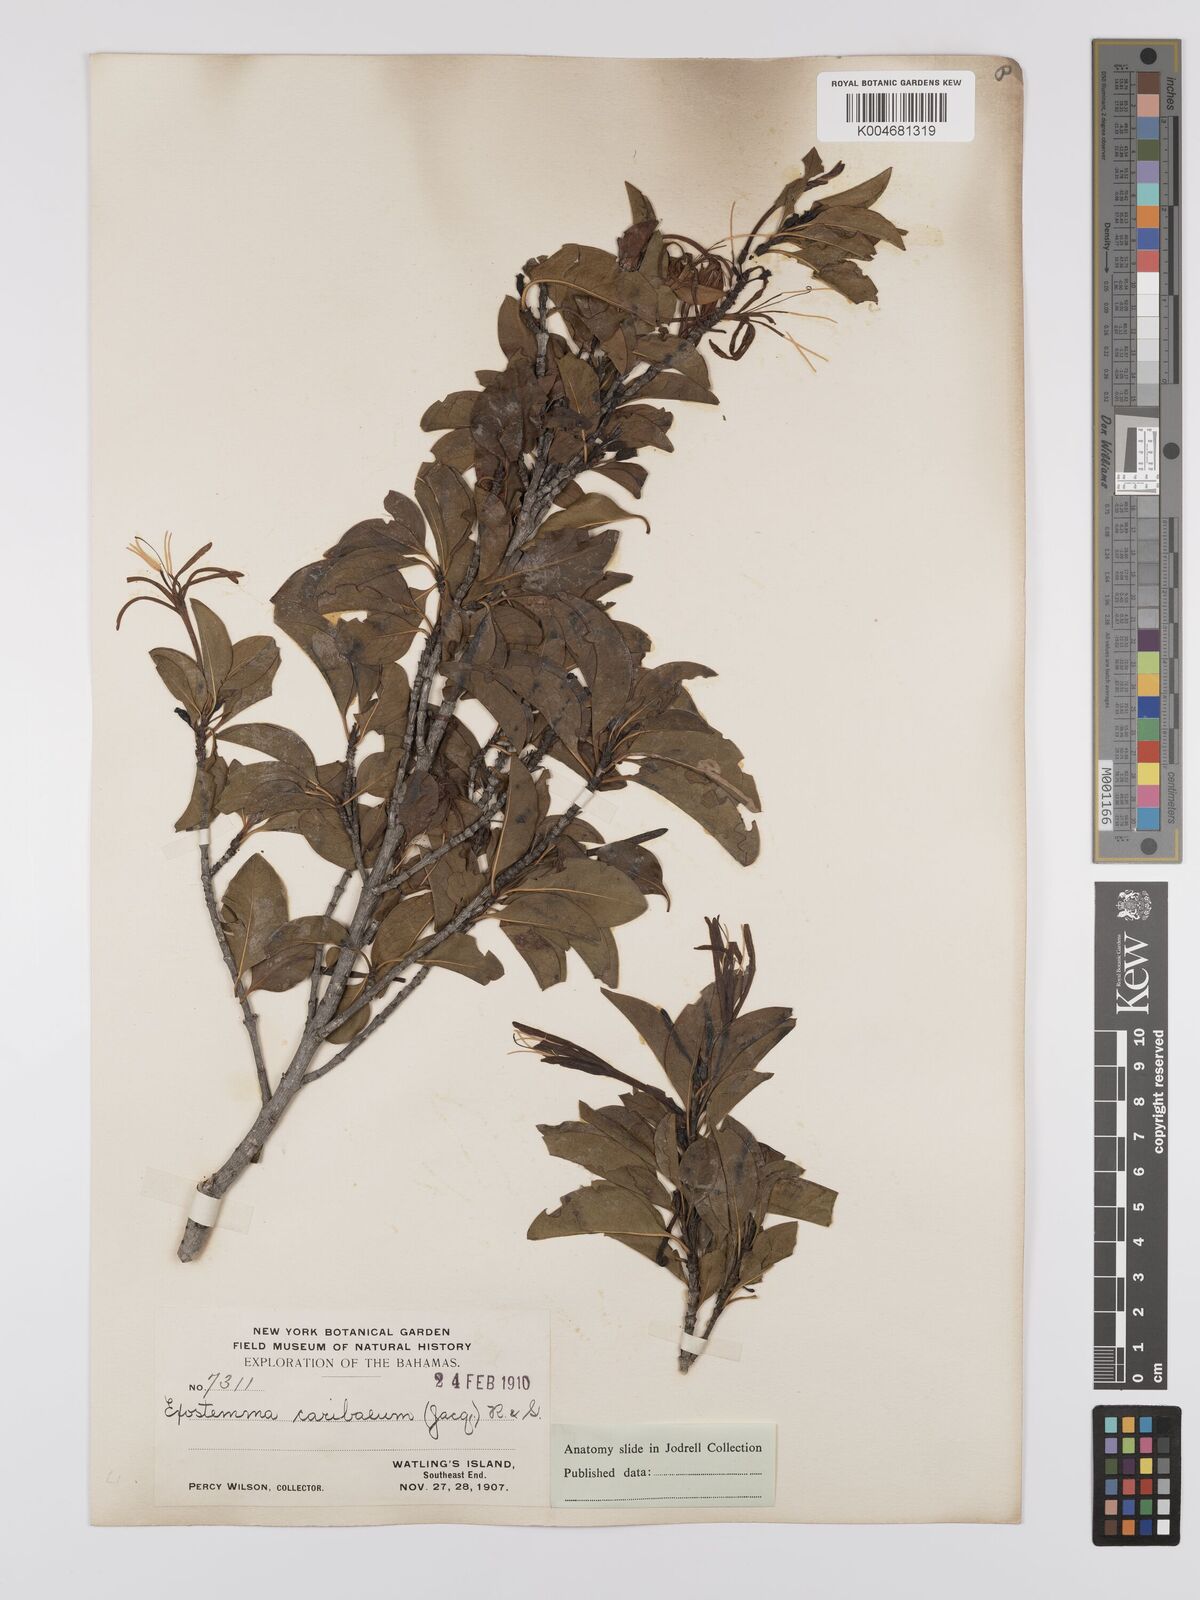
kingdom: Plantae
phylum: Tracheophyta
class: Magnoliopsida
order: Gentianales
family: Rubiaceae
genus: Exostema
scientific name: Exostema caribaeum
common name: Princewood
